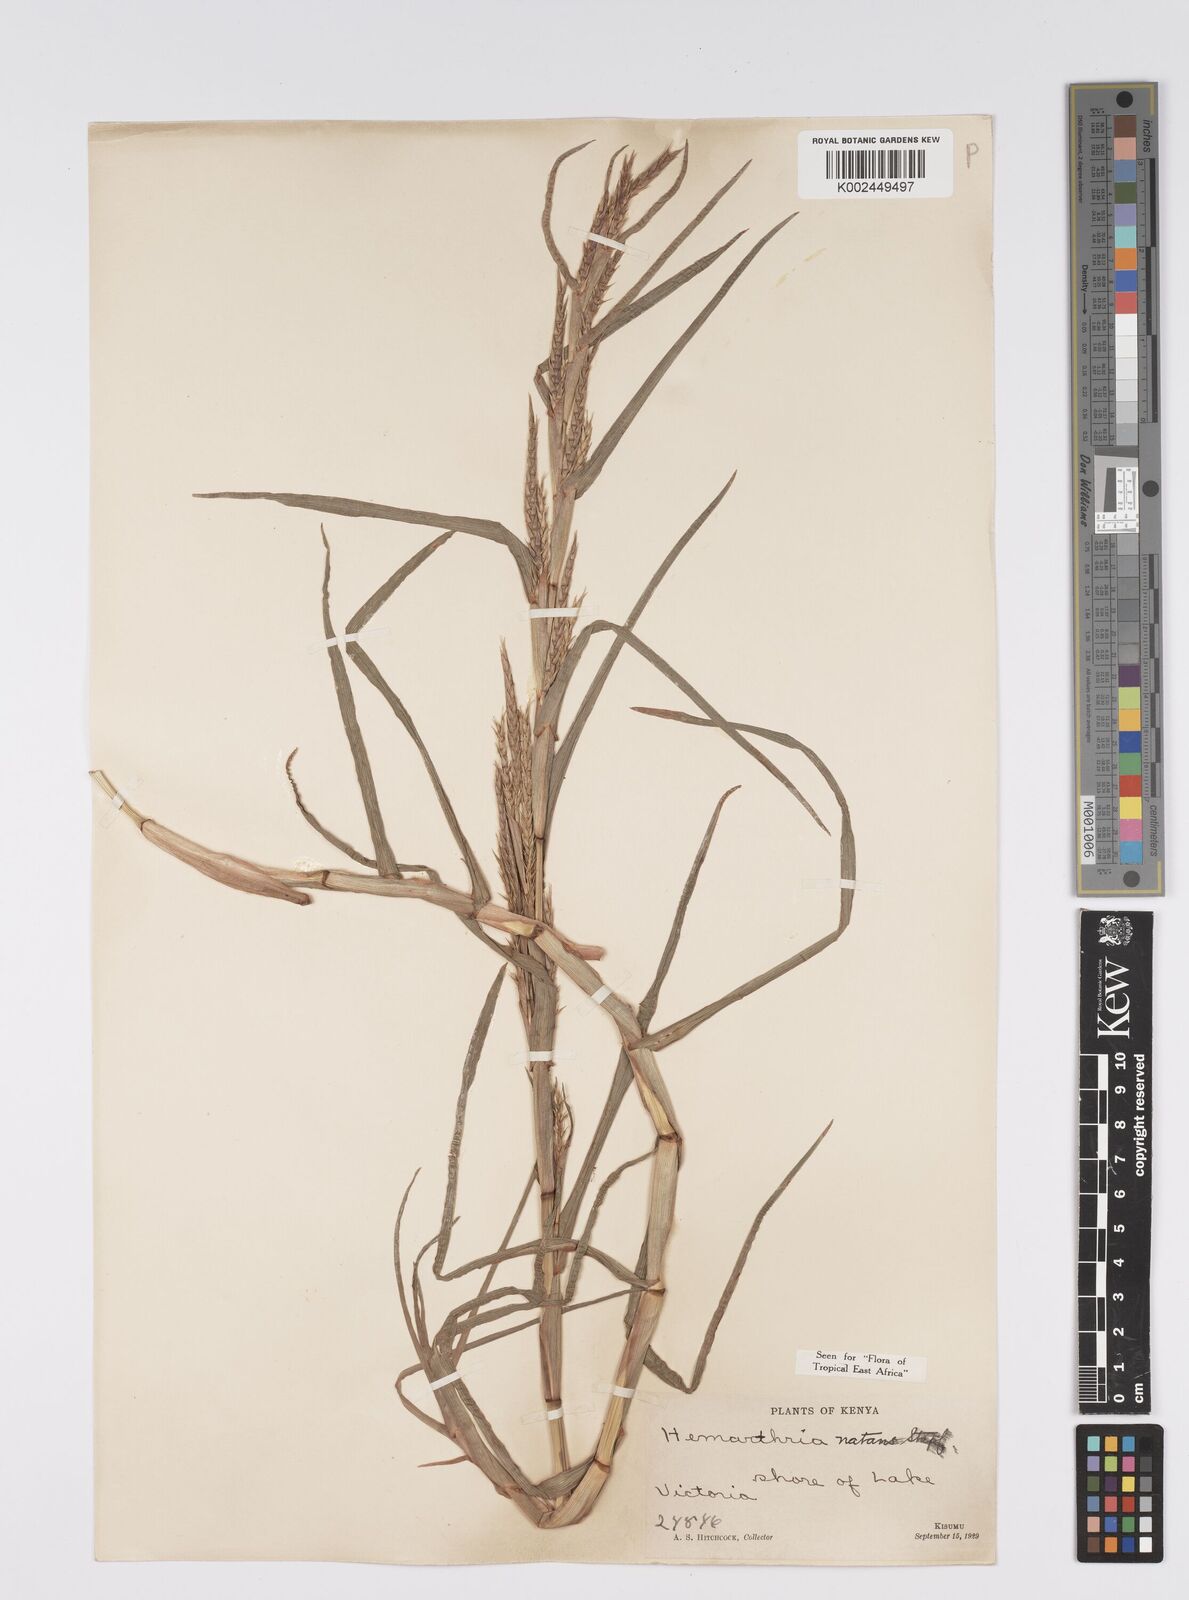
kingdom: Plantae
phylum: Tracheophyta
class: Liliopsida
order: Poales
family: Poaceae
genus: Hemarthria
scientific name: Hemarthria natans
